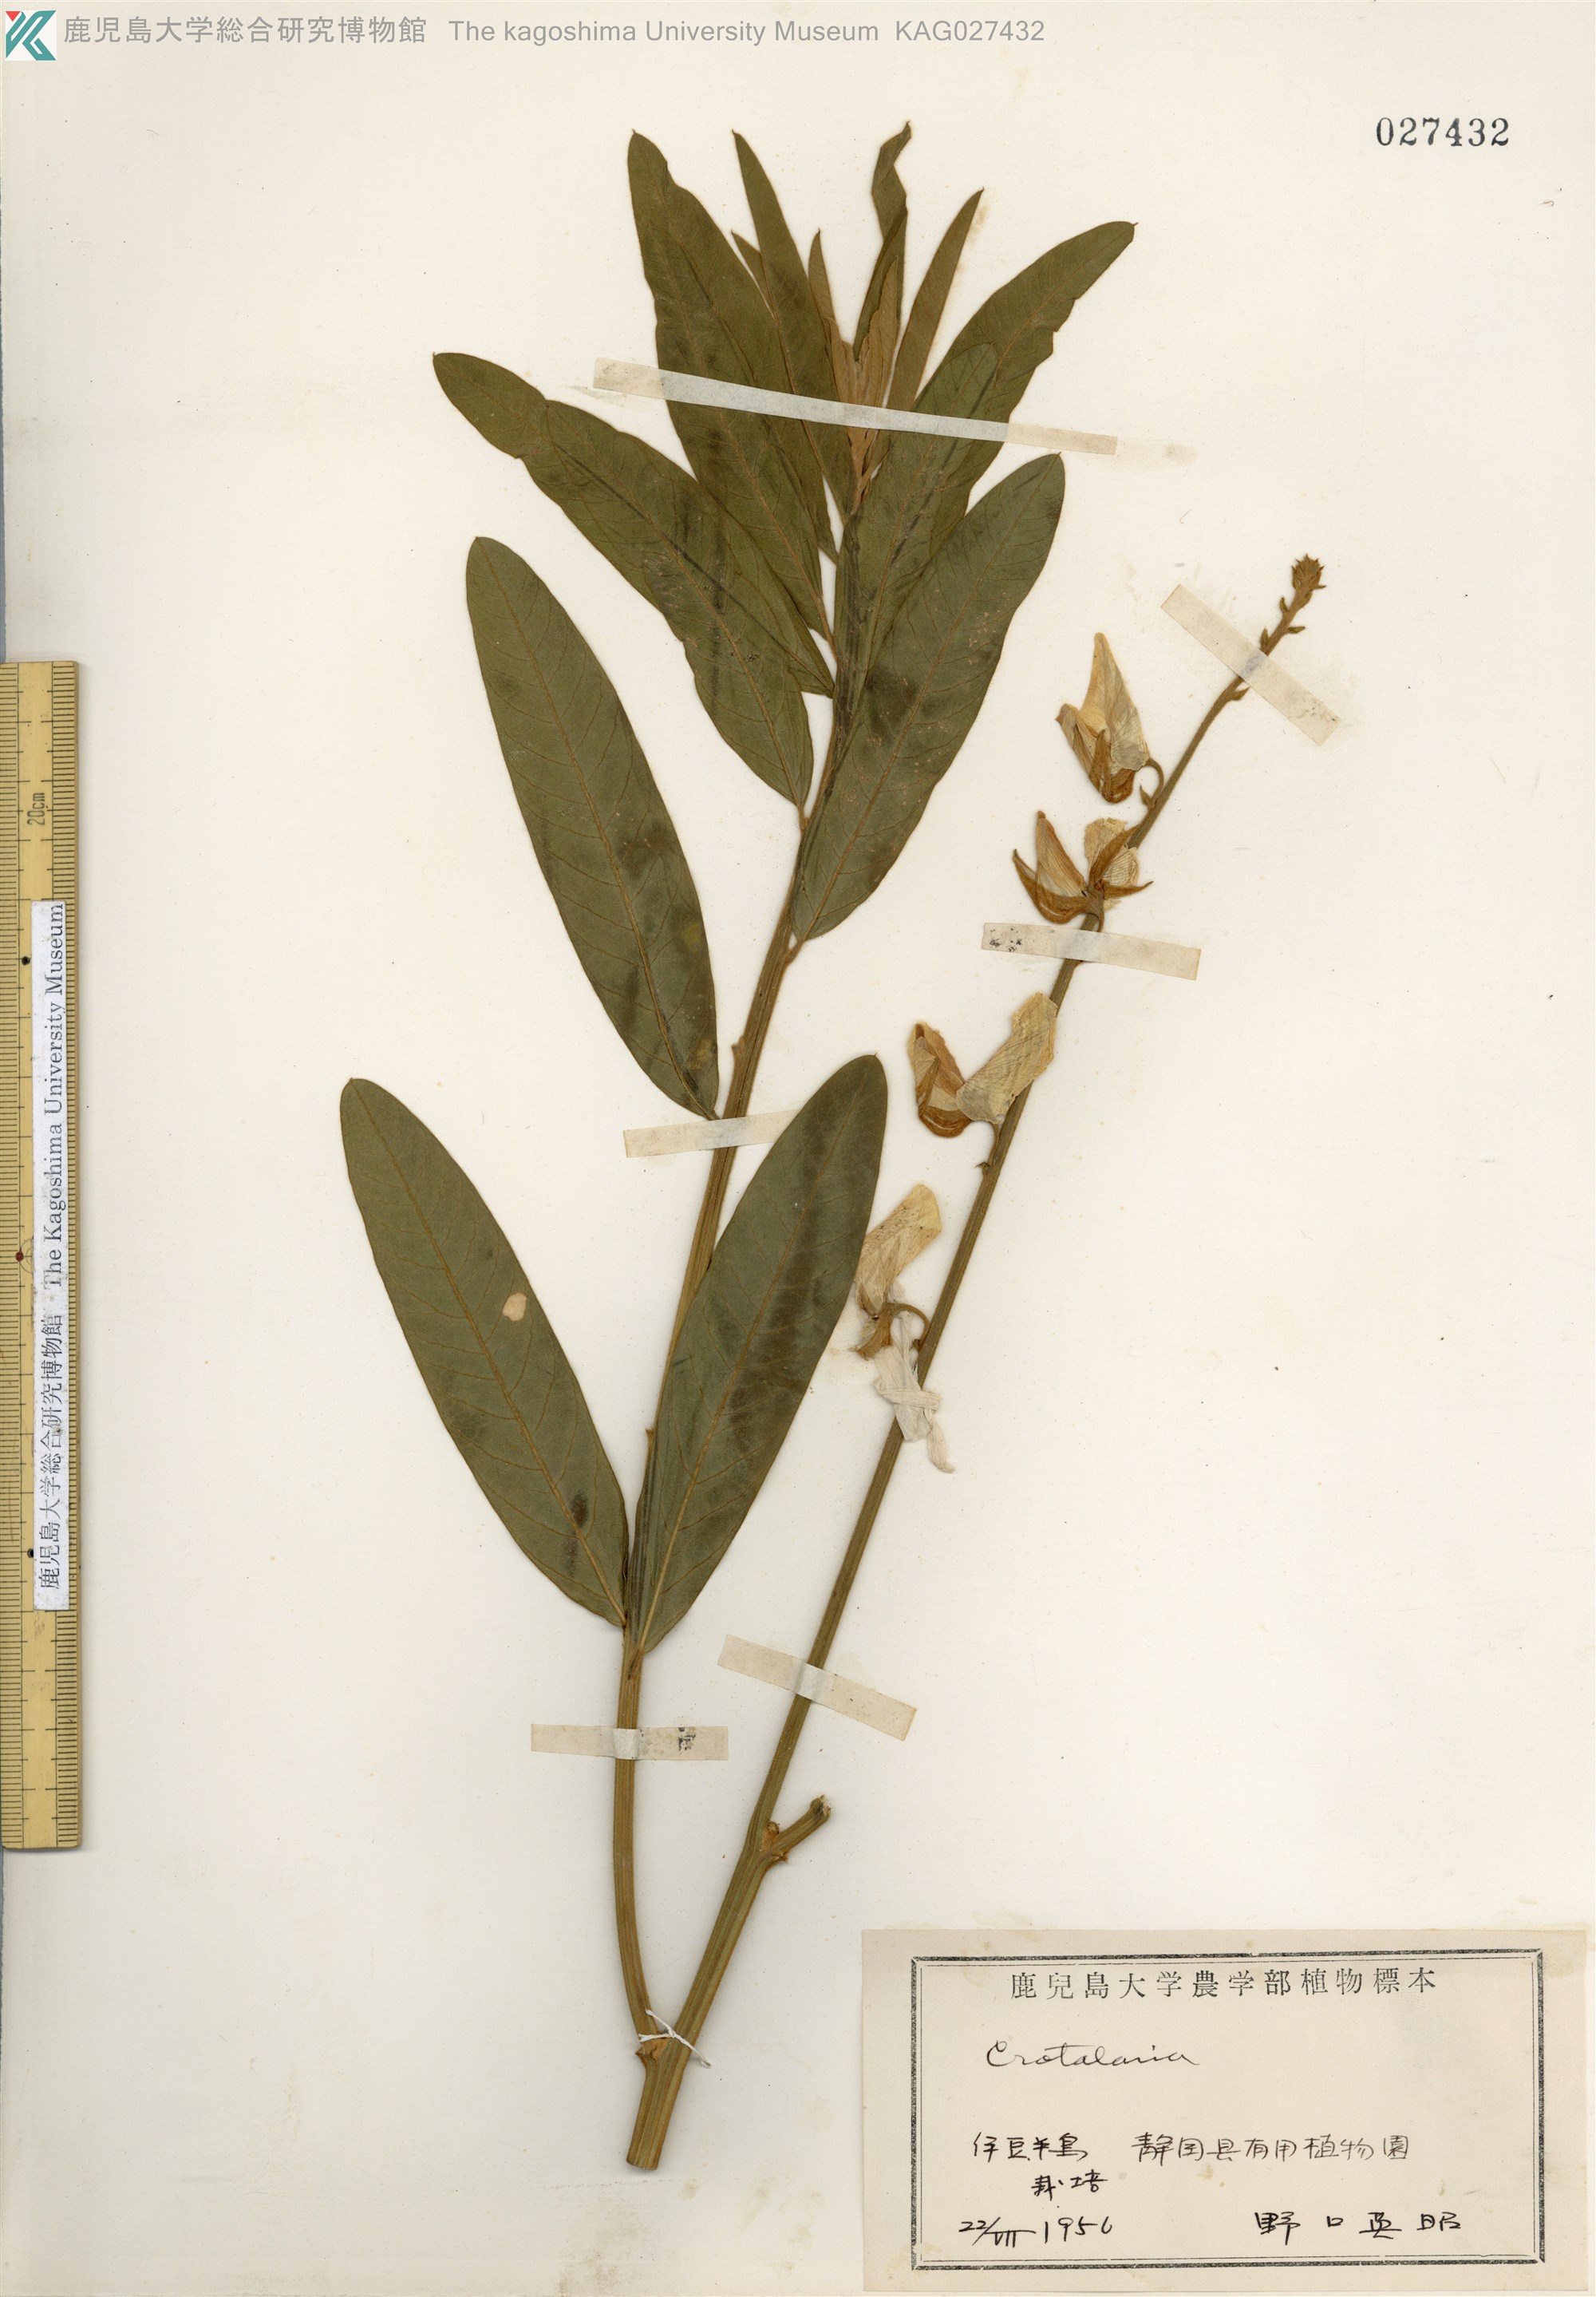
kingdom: Plantae
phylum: Tracheophyta
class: Magnoliopsida
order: Fabales
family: Fabaceae
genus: Crotalaria
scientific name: Crotalaria juncea
